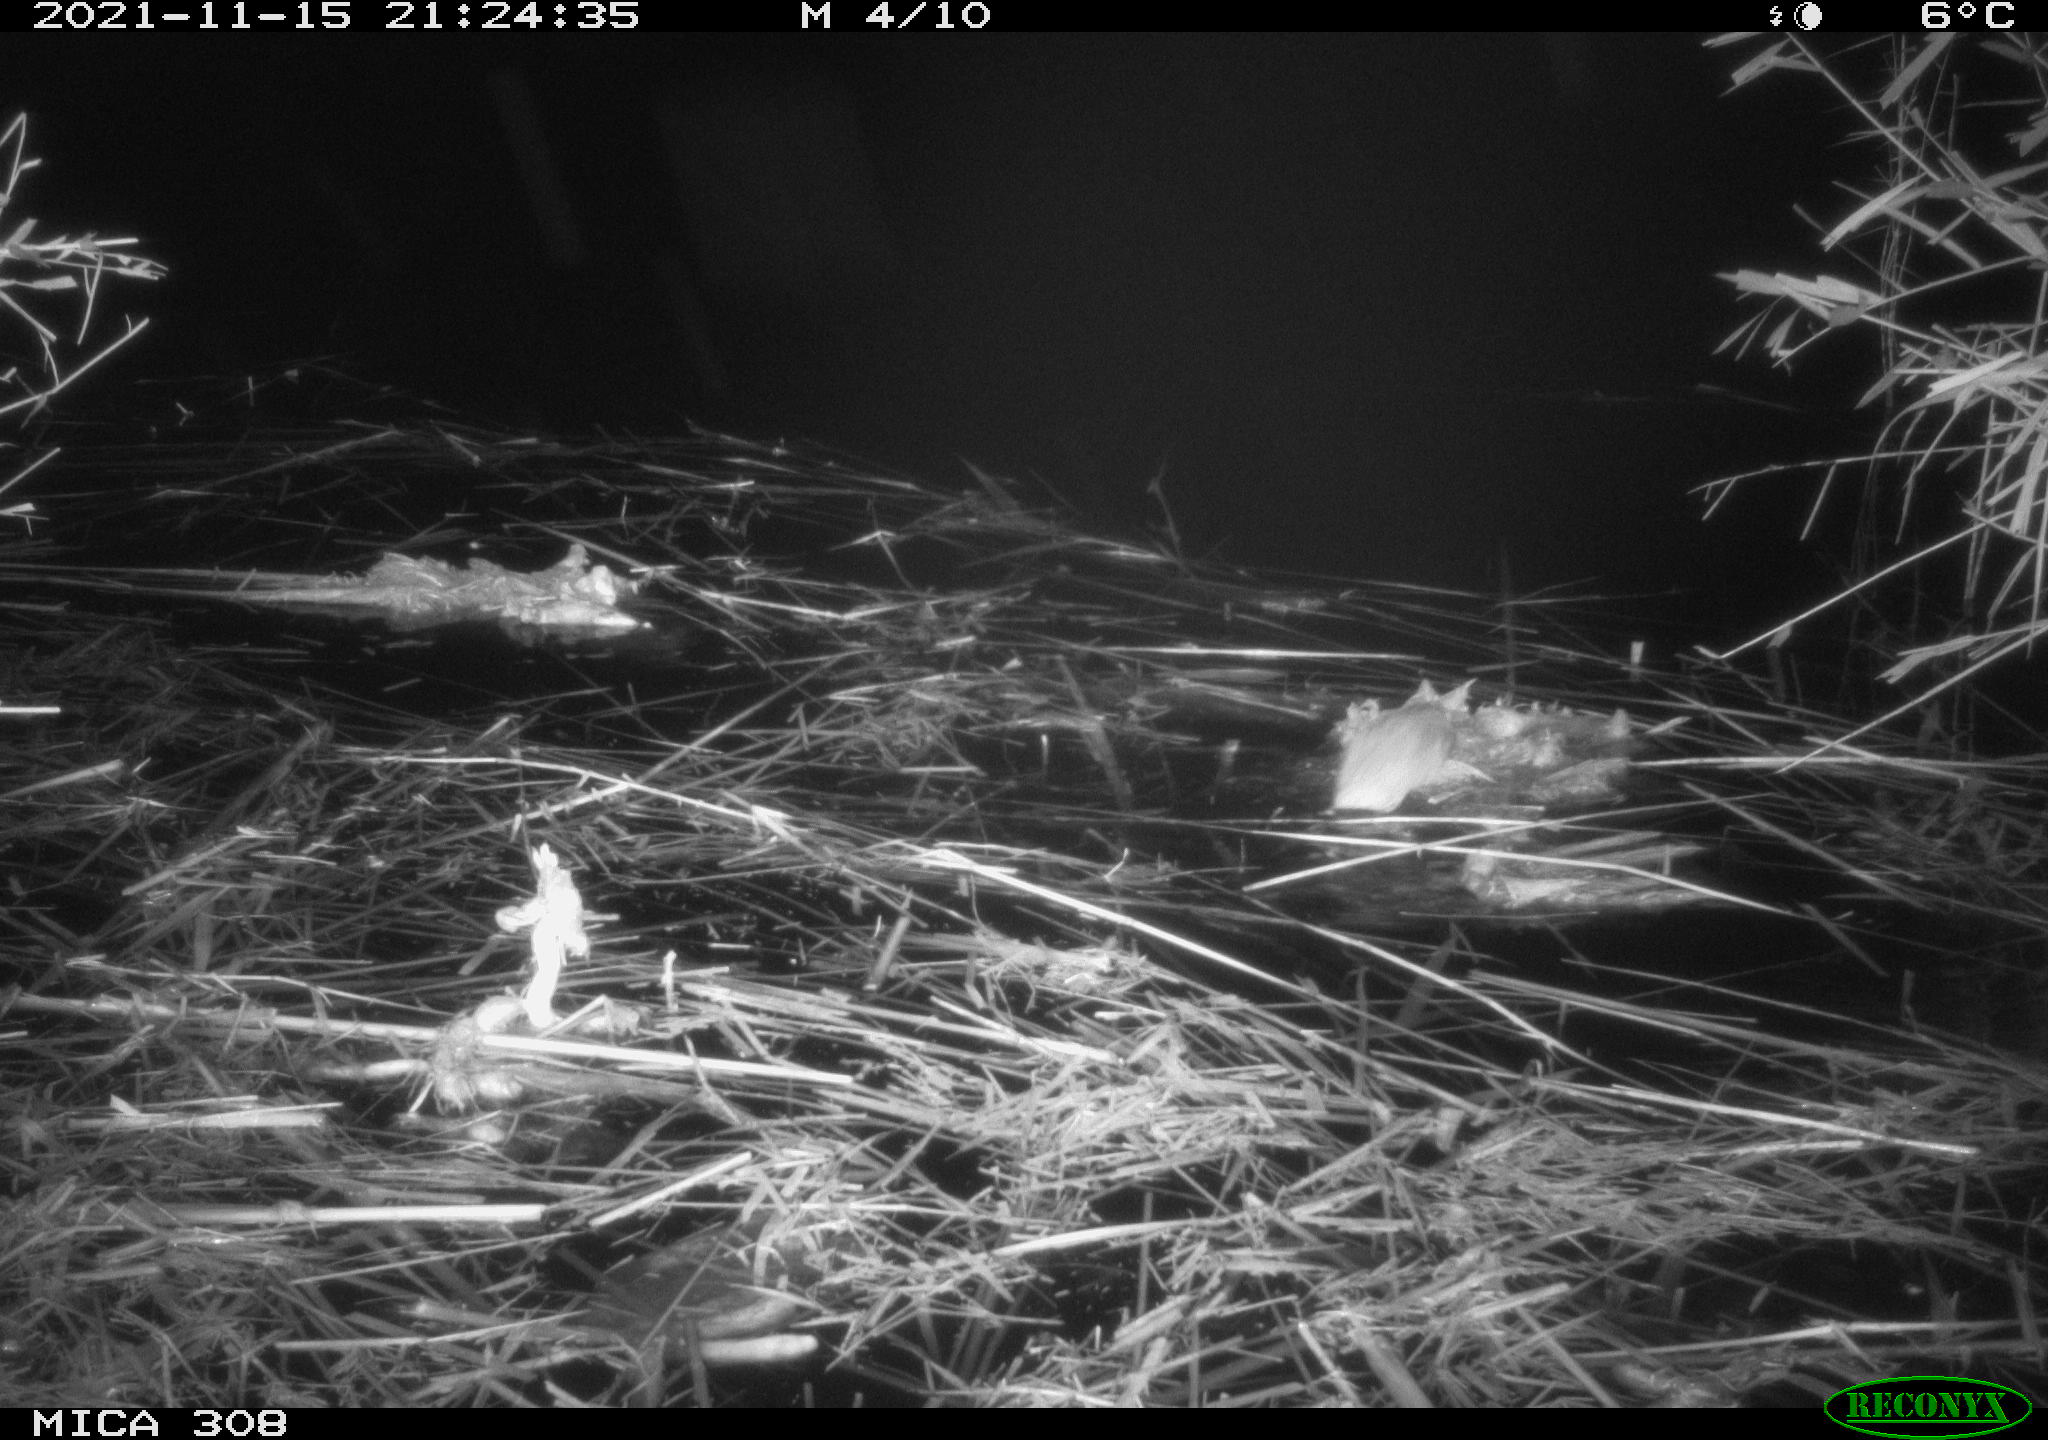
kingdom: Animalia
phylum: Chordata
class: Mammalia
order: Rodentia
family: Muridae
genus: Rattus
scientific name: Rattus norvegicus
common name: Brown rat
